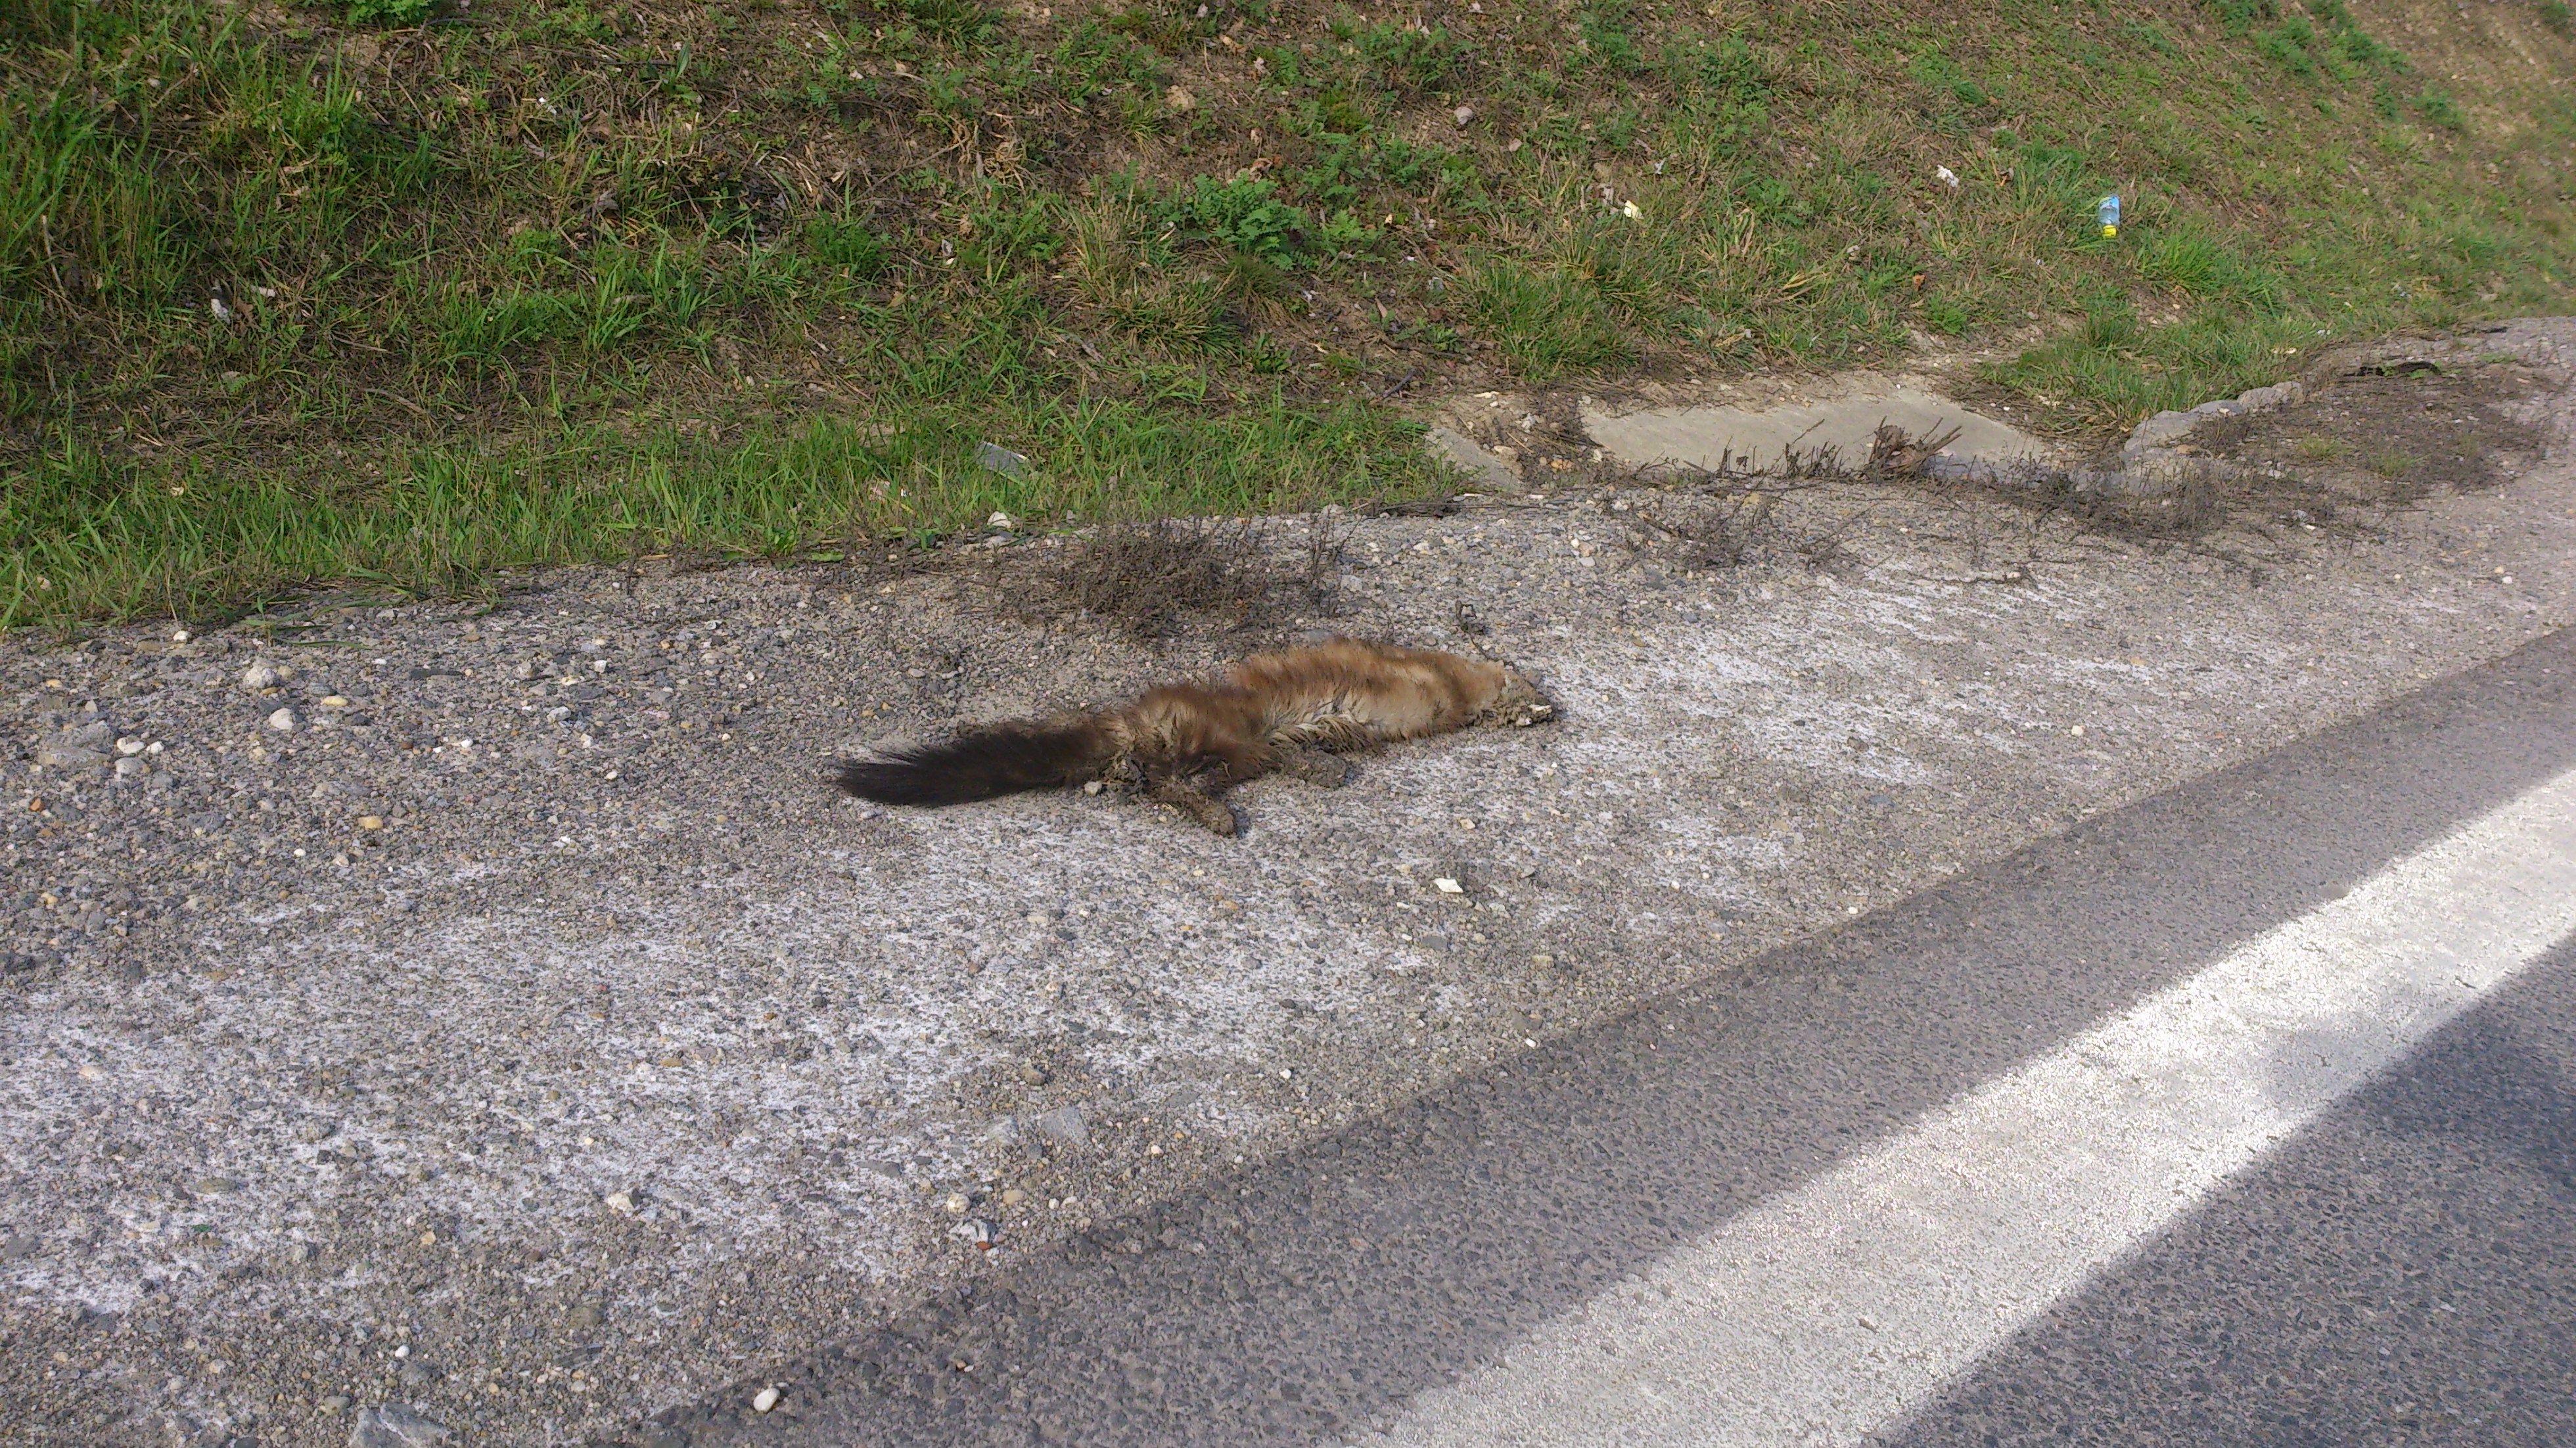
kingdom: Animalia
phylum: Chordata
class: Mammalia
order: Carnivora
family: Mustelidae
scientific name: Mustelidae
